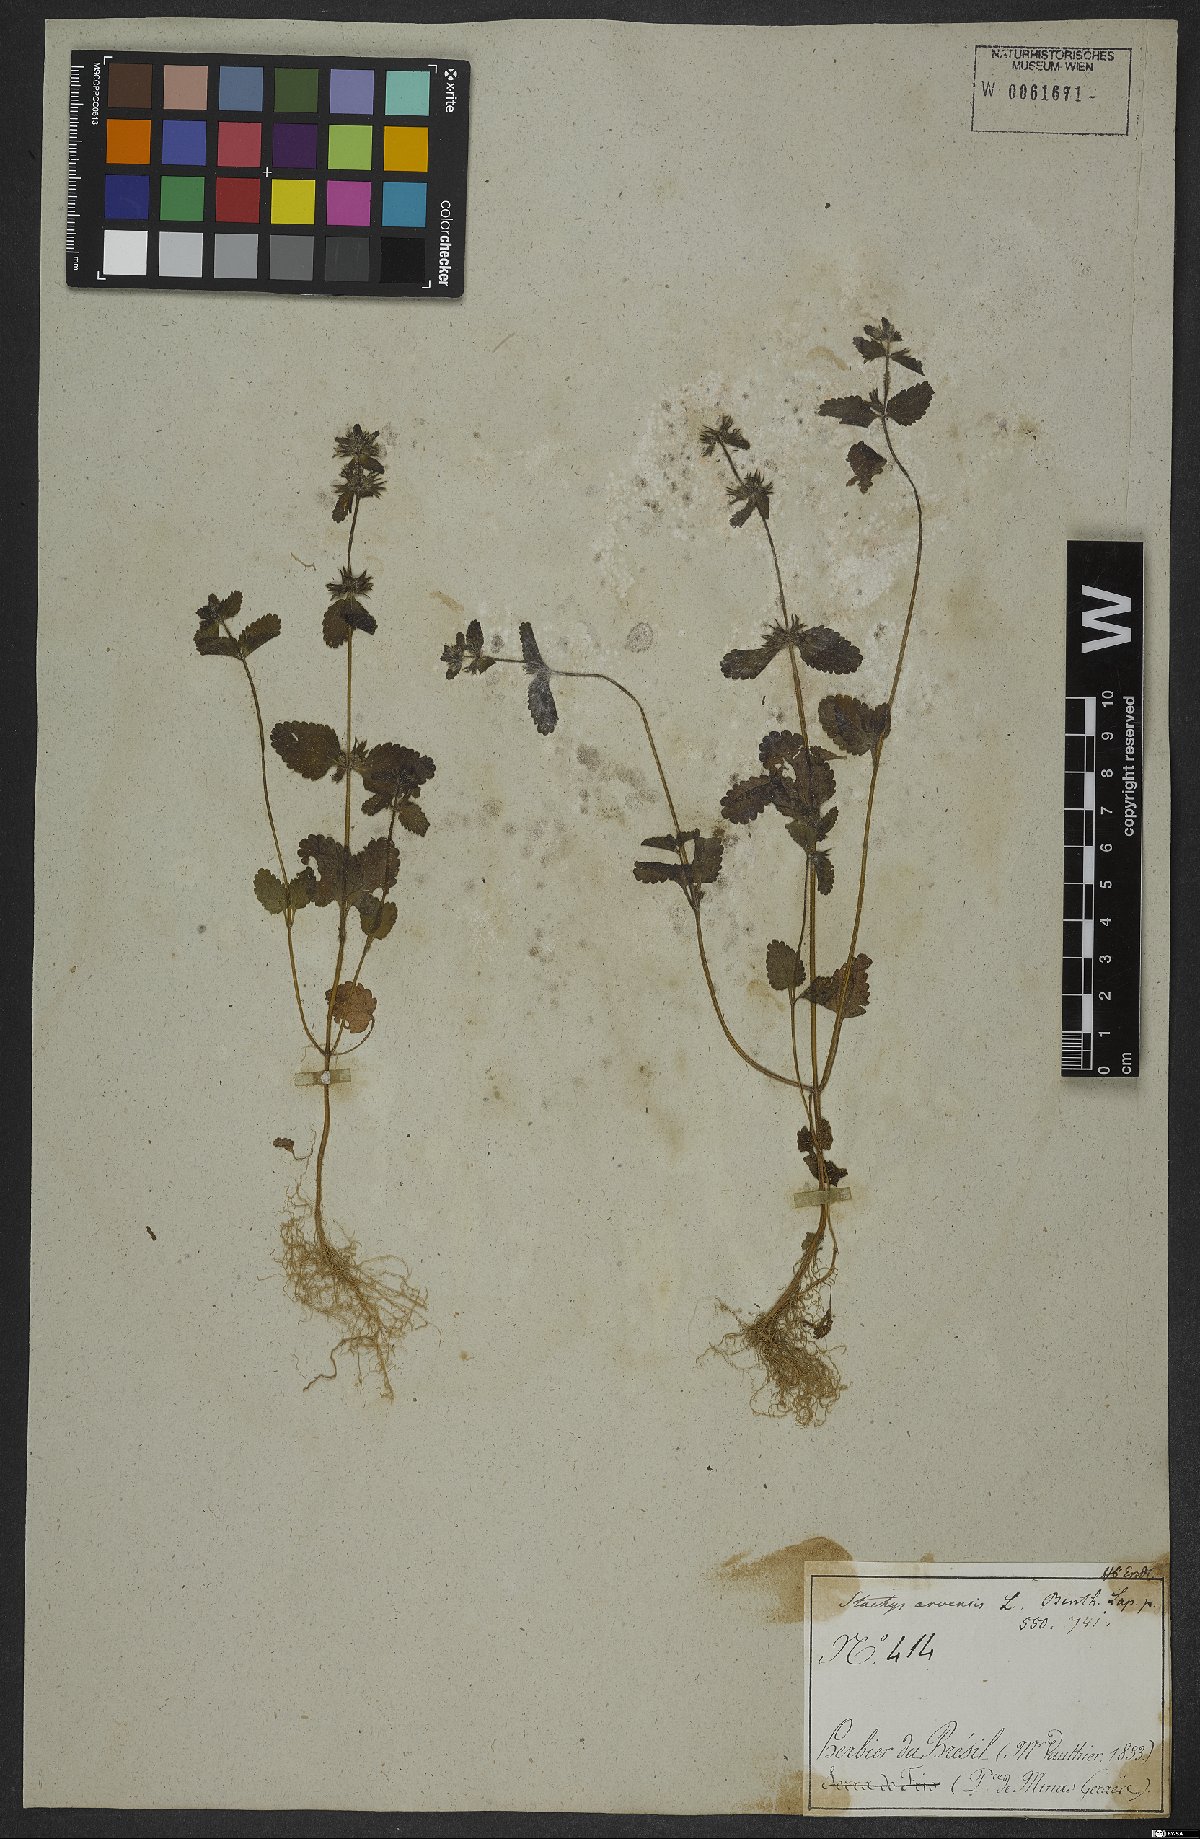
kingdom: Plantae
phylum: Tracheophyta
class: Magnoliopsida
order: Lamiales
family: Lamiaceae
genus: Stachys
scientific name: Stachys arvensis
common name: Field woundwort
